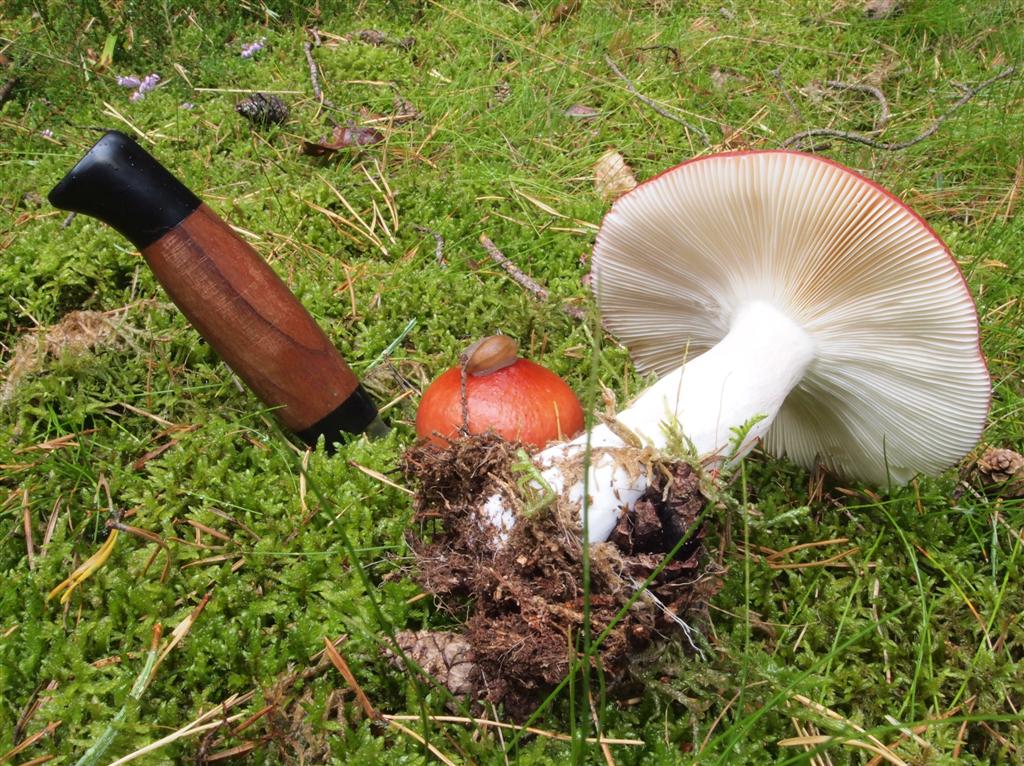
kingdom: Fungi
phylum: Basidiomycota
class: Agaricomycetes
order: Russulales
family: Russulaceae
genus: Russula
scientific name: Russula paludosa
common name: prægtig skørhat
